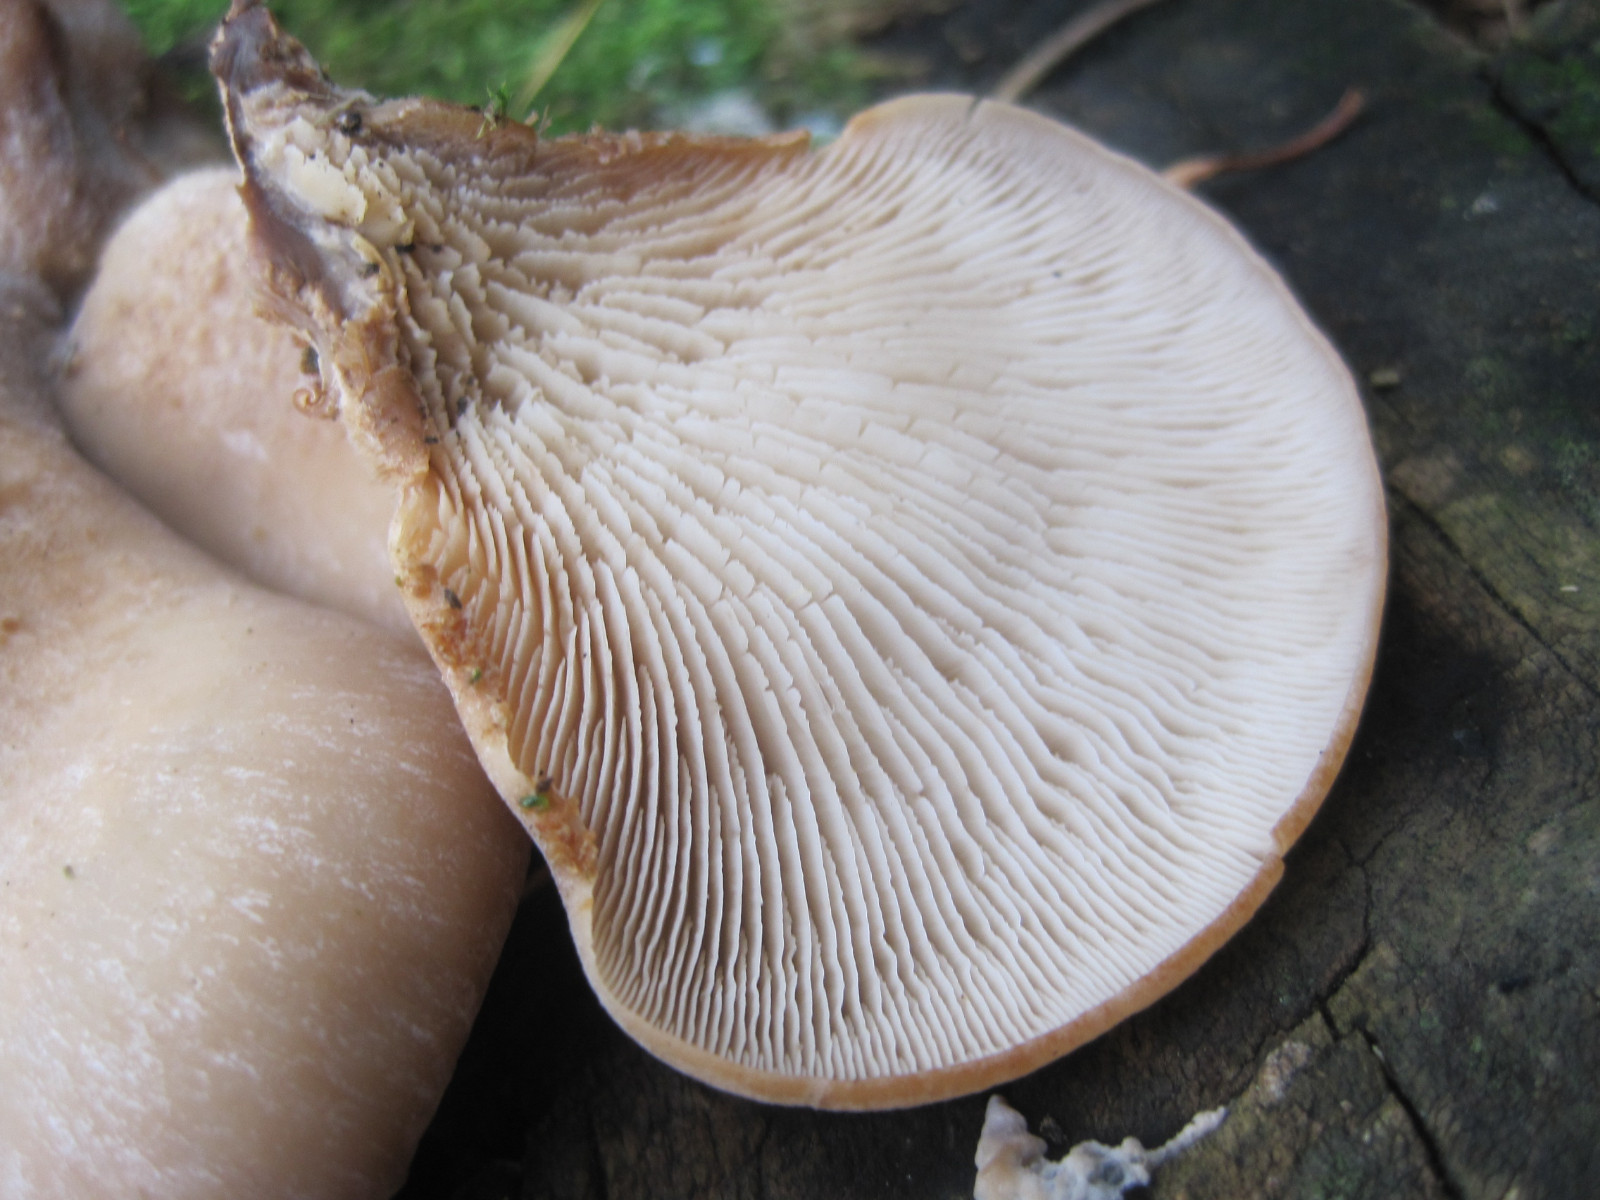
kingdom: Fungi
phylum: Basidiomycota
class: Agaricomycetes
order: Russulales
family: Auriscalpiaceae
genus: Lentinellus
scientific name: Lentinellus ursinus
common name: børstehåret savbladhat
